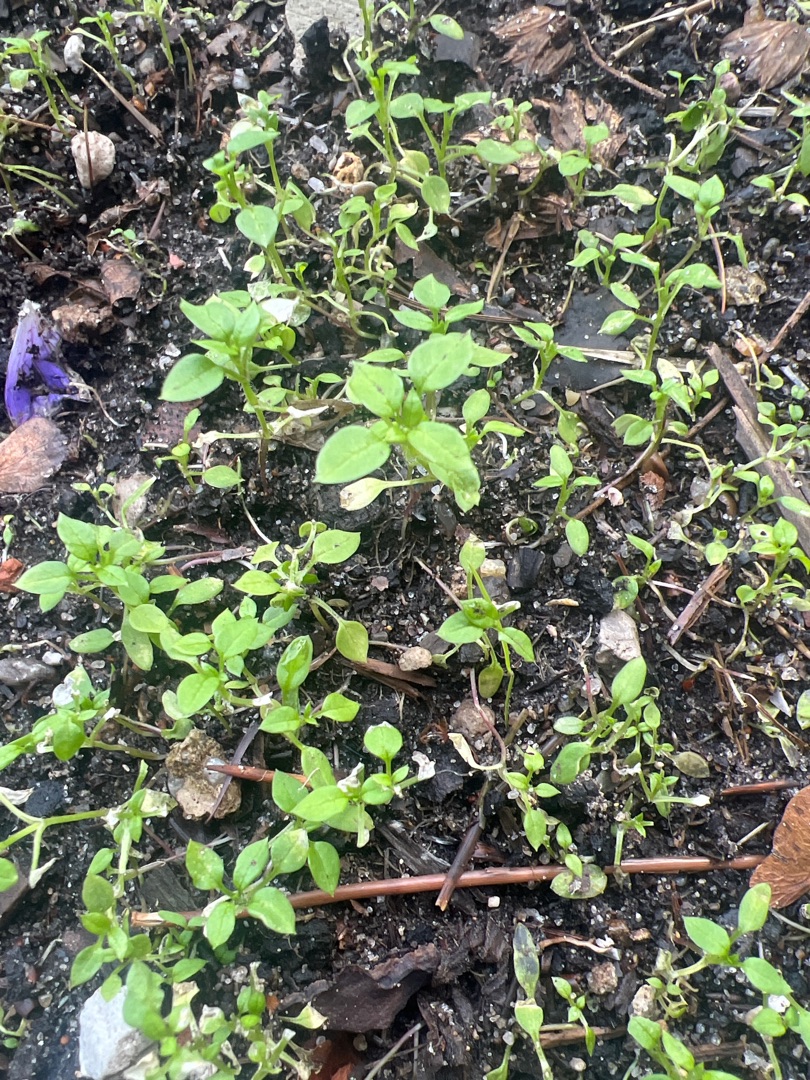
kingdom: Plantae
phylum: Tracheophyta
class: Magnoliopsida
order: Caryophyllales
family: Caryophyllaceae
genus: Stellaria
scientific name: Stellaria media
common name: Almindelig fuglegræs
